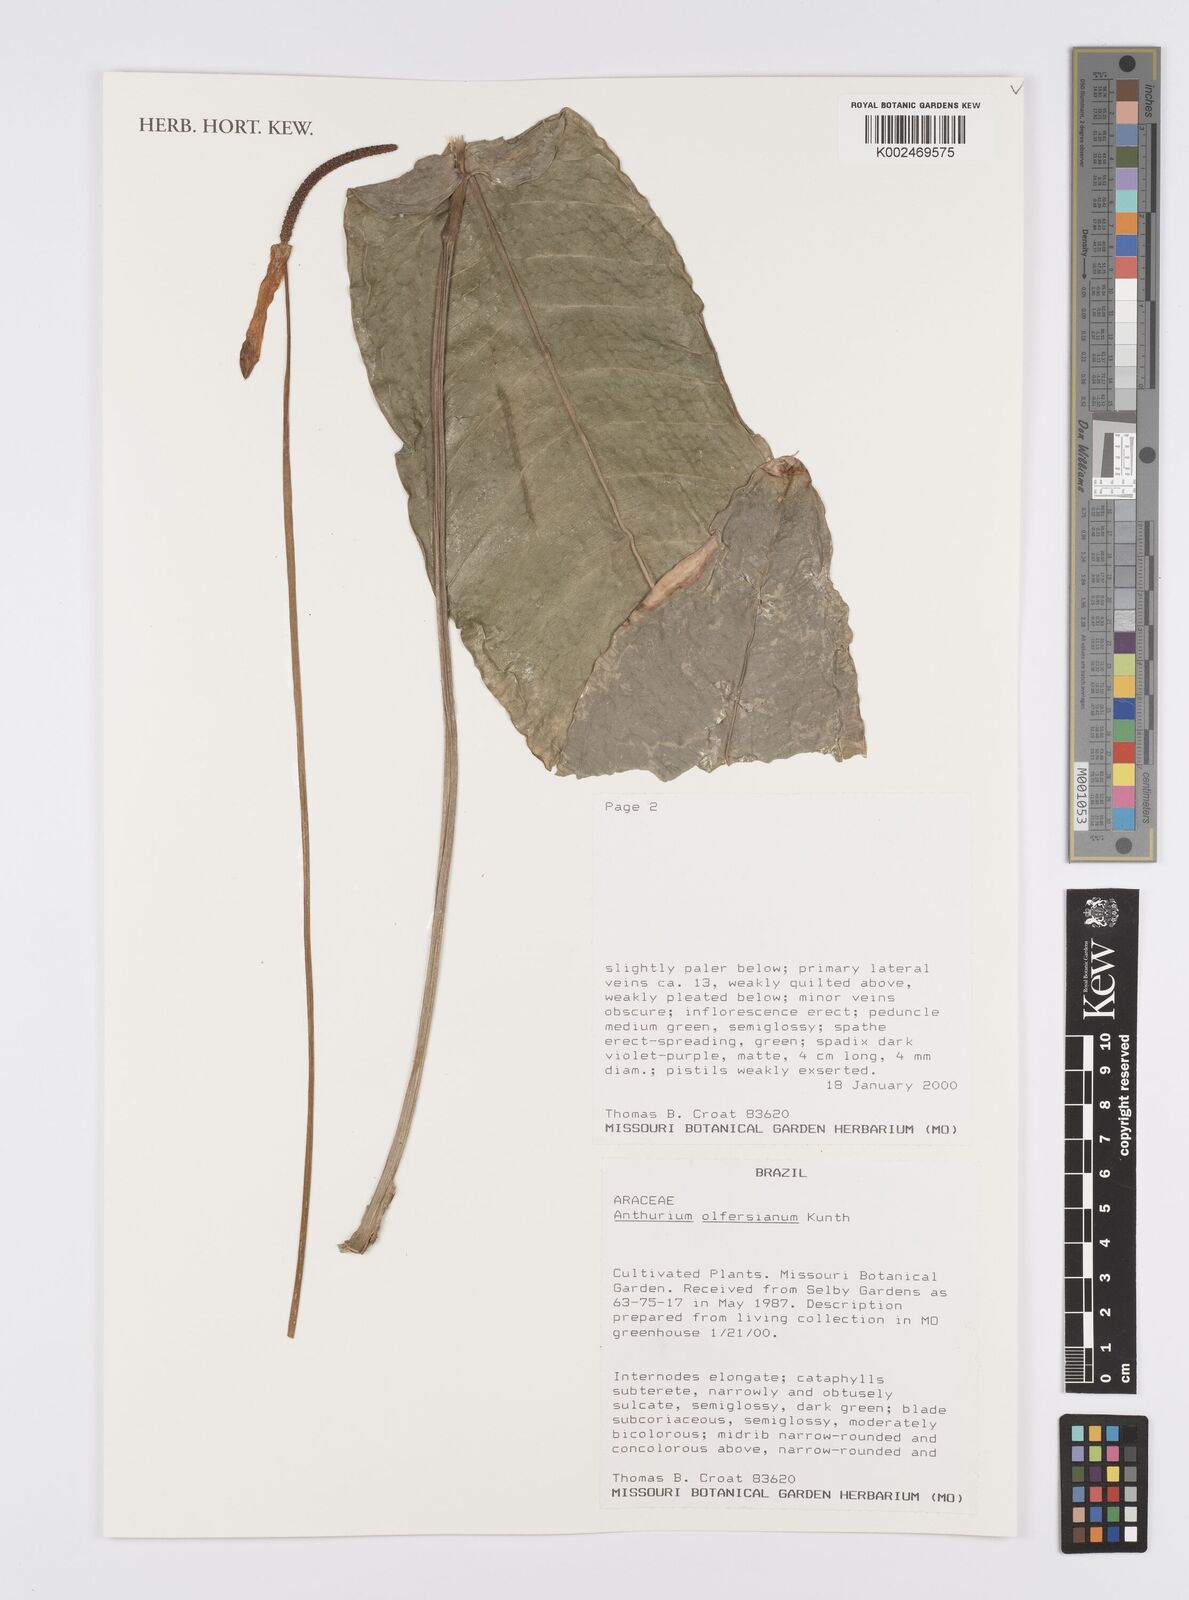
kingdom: Plantae
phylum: Tracheophyta
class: Liliopsida
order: Alismatales
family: Araceae
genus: Anthurium
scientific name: Anthurium parasiticum
